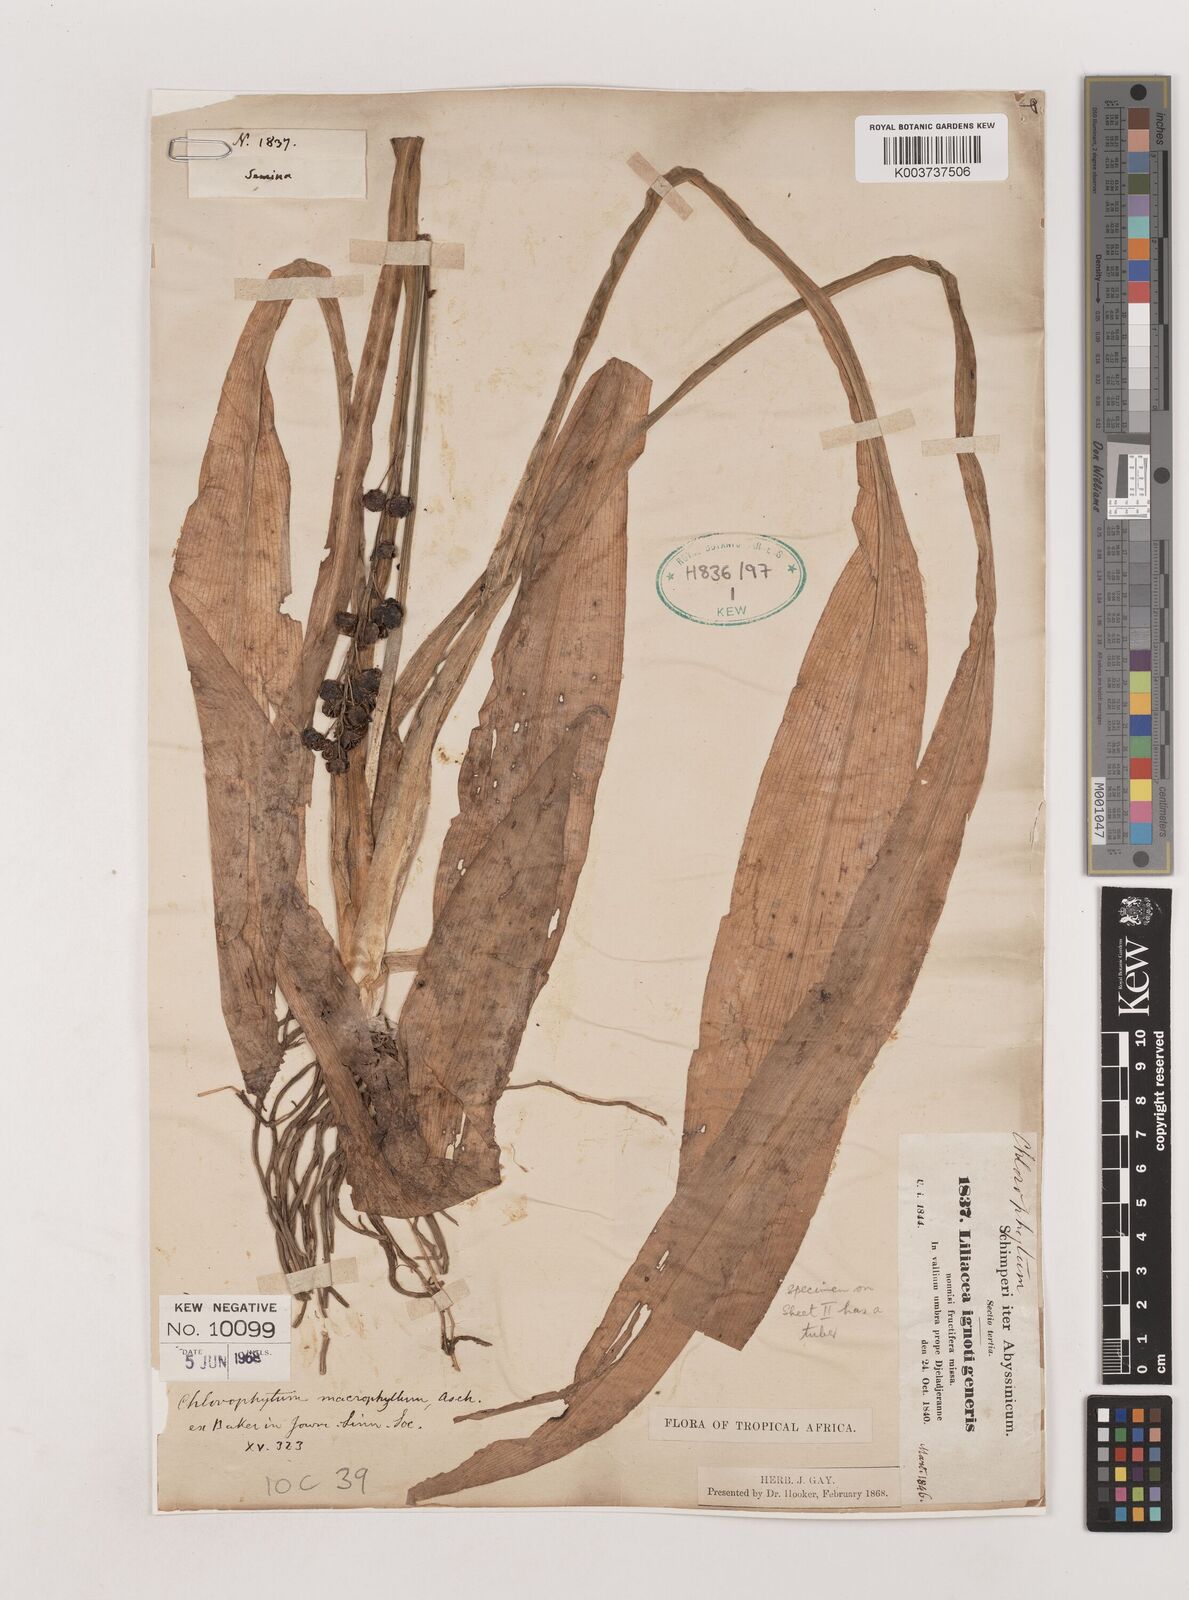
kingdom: Plantae
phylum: Tracheophyta
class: Liliopsida
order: Asparagales
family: Asparagaceae
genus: Chlorophytum
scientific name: Chlorophytum macrophyllum
